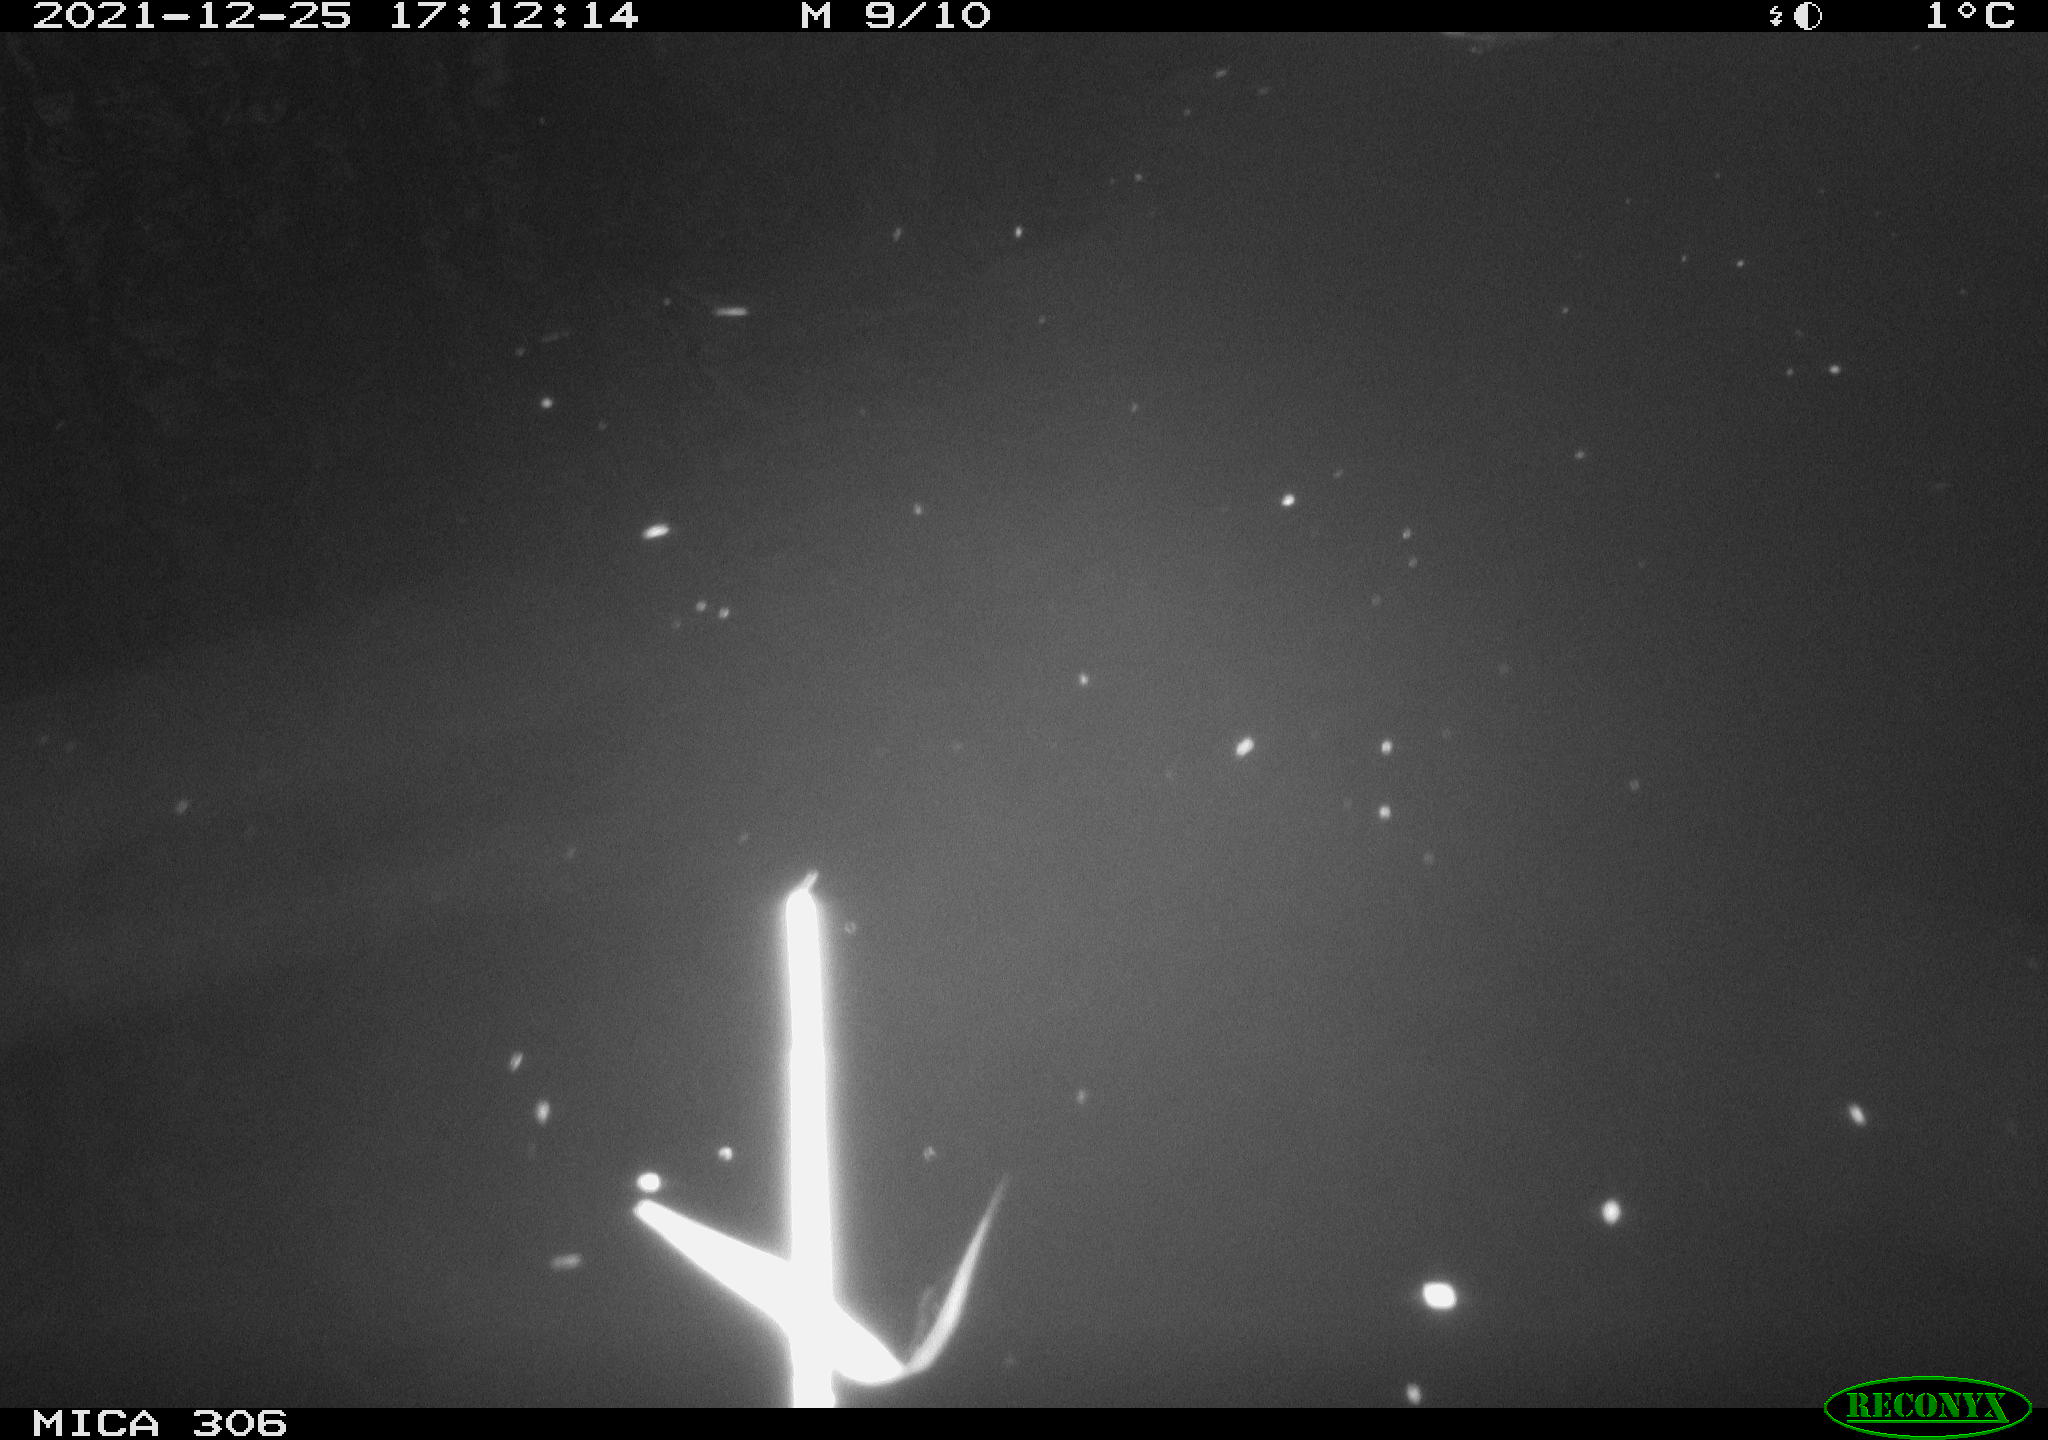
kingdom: Animalia
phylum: Chordata
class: Aves
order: Gruiformes
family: Rallidae
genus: Gallinula
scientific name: Gallinula chloropus
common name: Common moorhen
